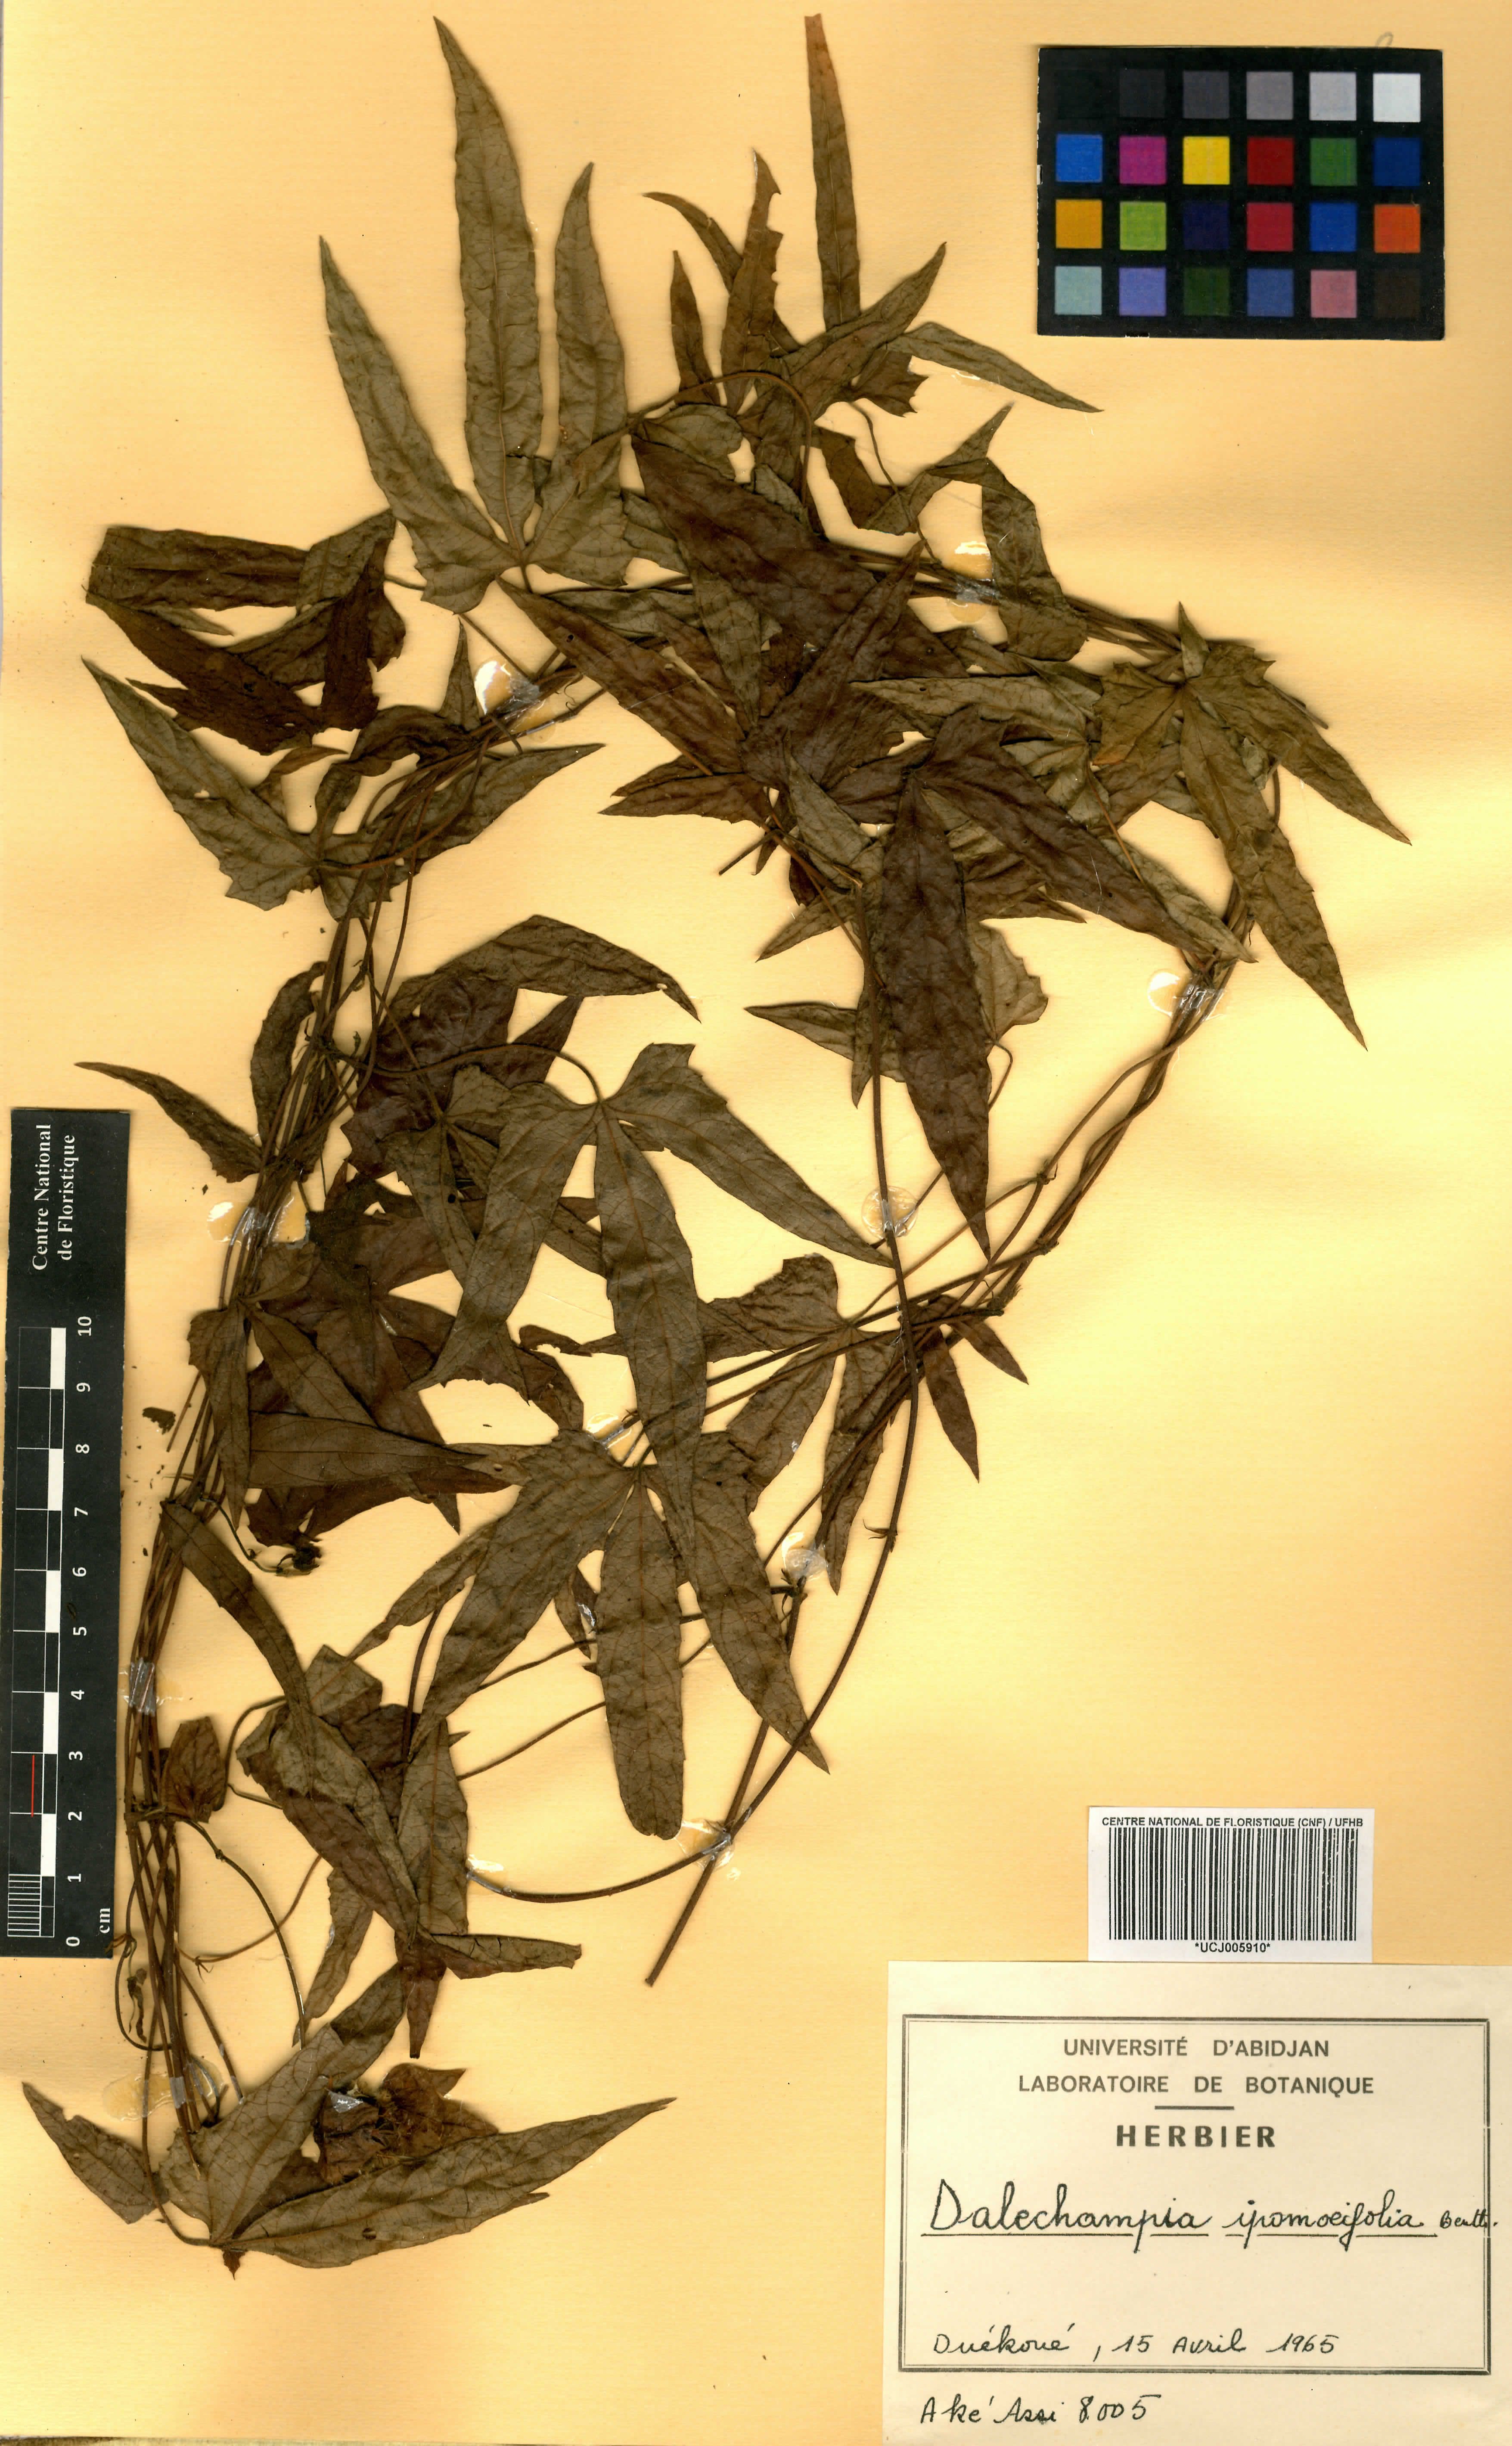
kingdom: Plantae
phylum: Tracheophyta
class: Magnoliopsida
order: Malpighiales
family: Euphorbiaceae
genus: Dalechampia
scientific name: Dalechampia ipomoeifolia
